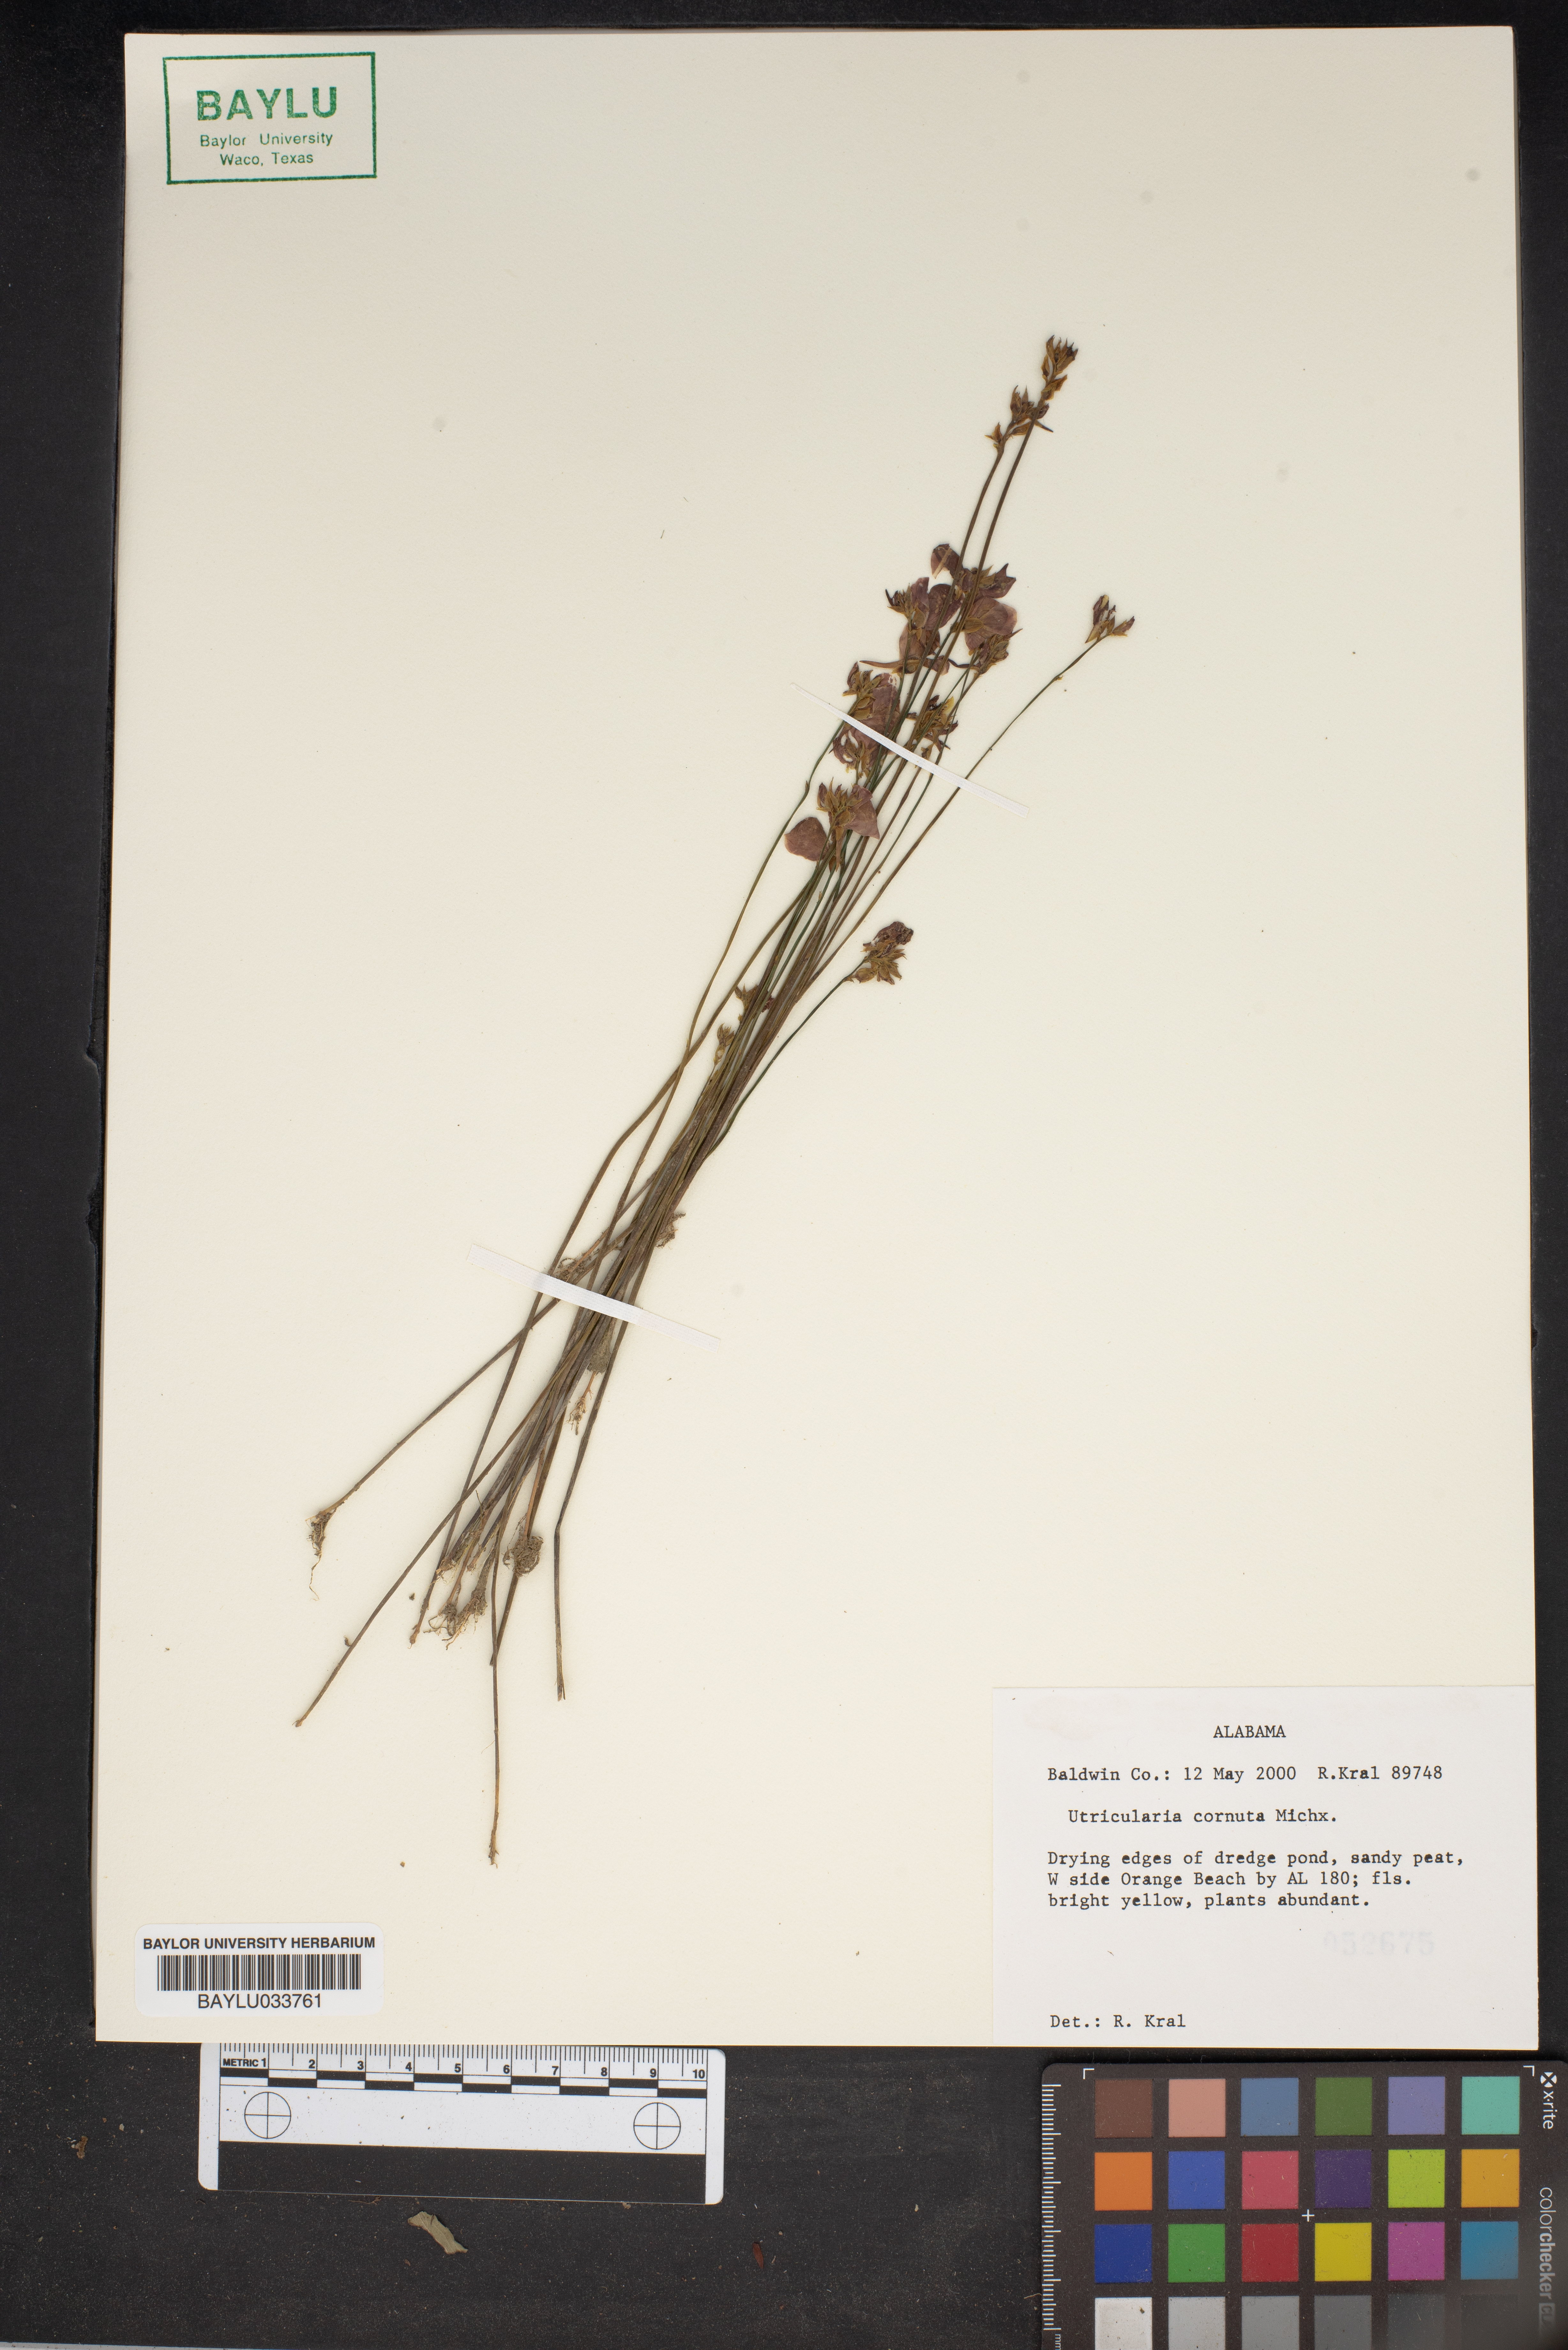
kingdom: Plantae
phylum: Tracheophyta
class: Magnoliopsida
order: Lamiales
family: Lentibulariaceae
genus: Utricularia
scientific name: Utricularia cornuta
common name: Horned bladderwort
